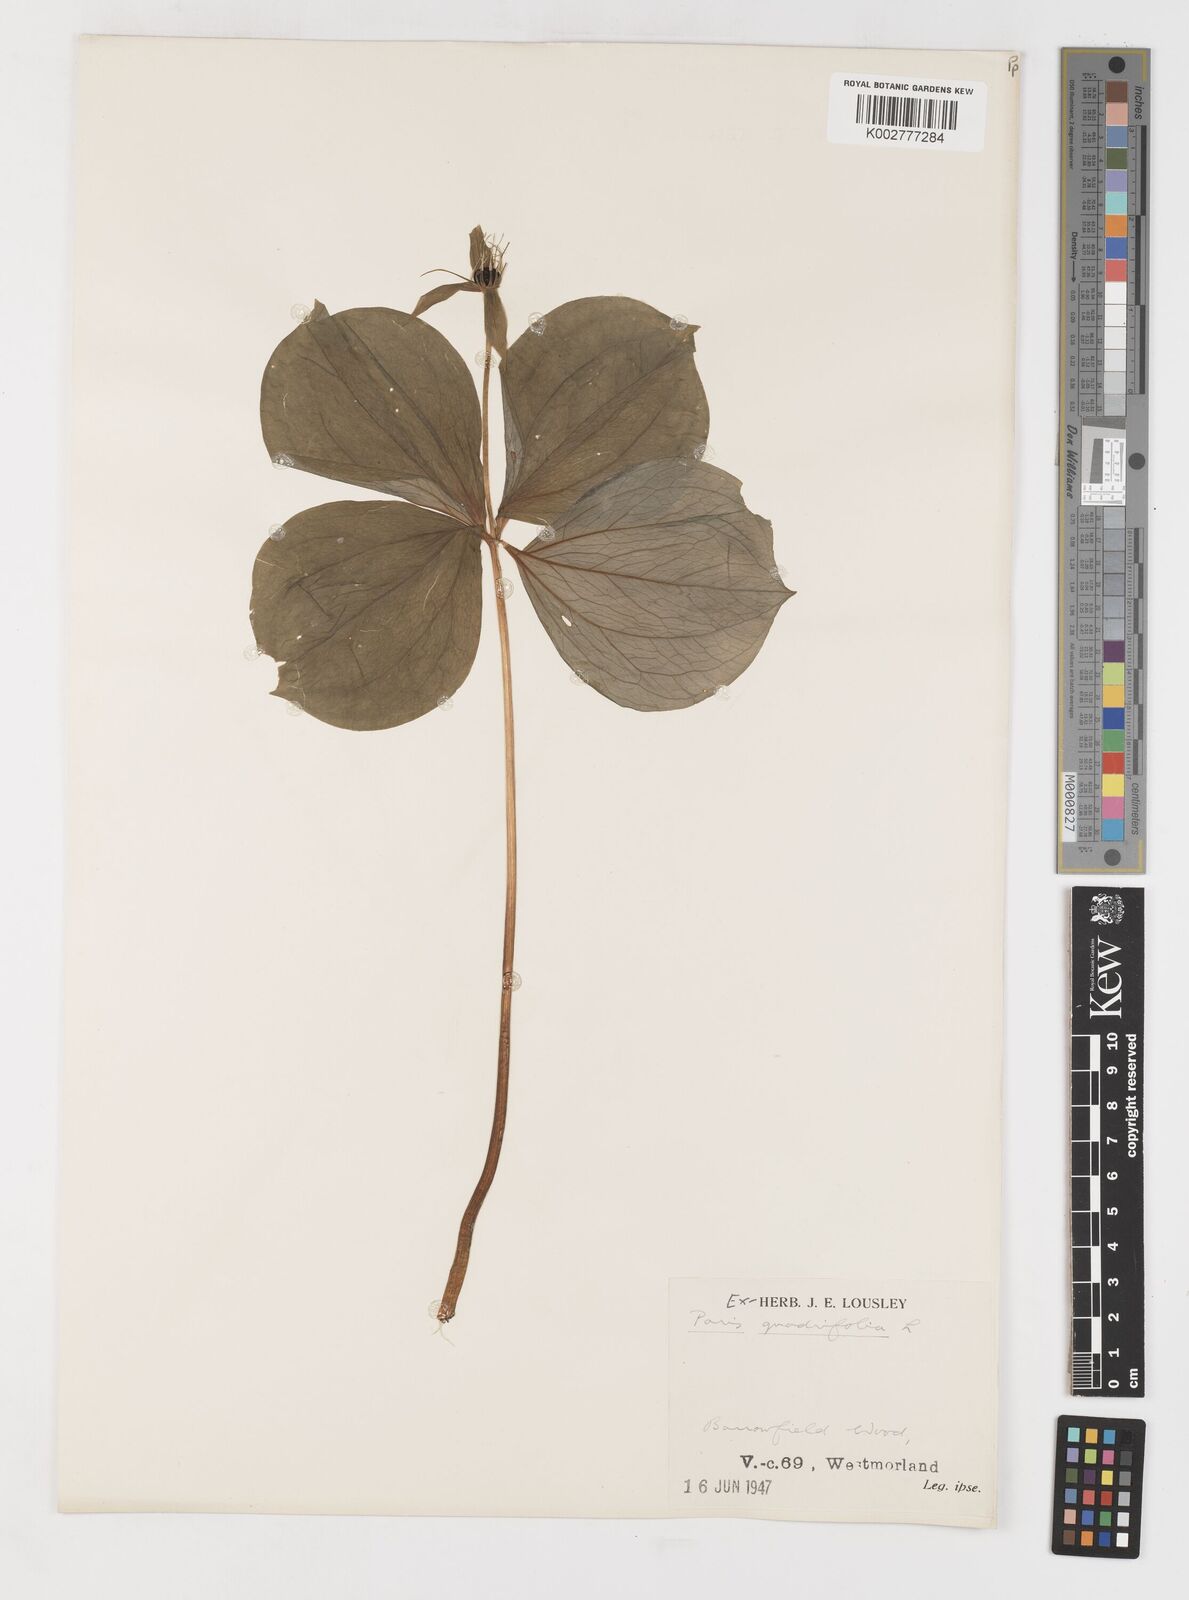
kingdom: Plantae
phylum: Tracheophyta
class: Liliopsida
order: Liliales
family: Melanthiaceae
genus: Paris
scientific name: Paris quadrifolia
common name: Herb-paris
